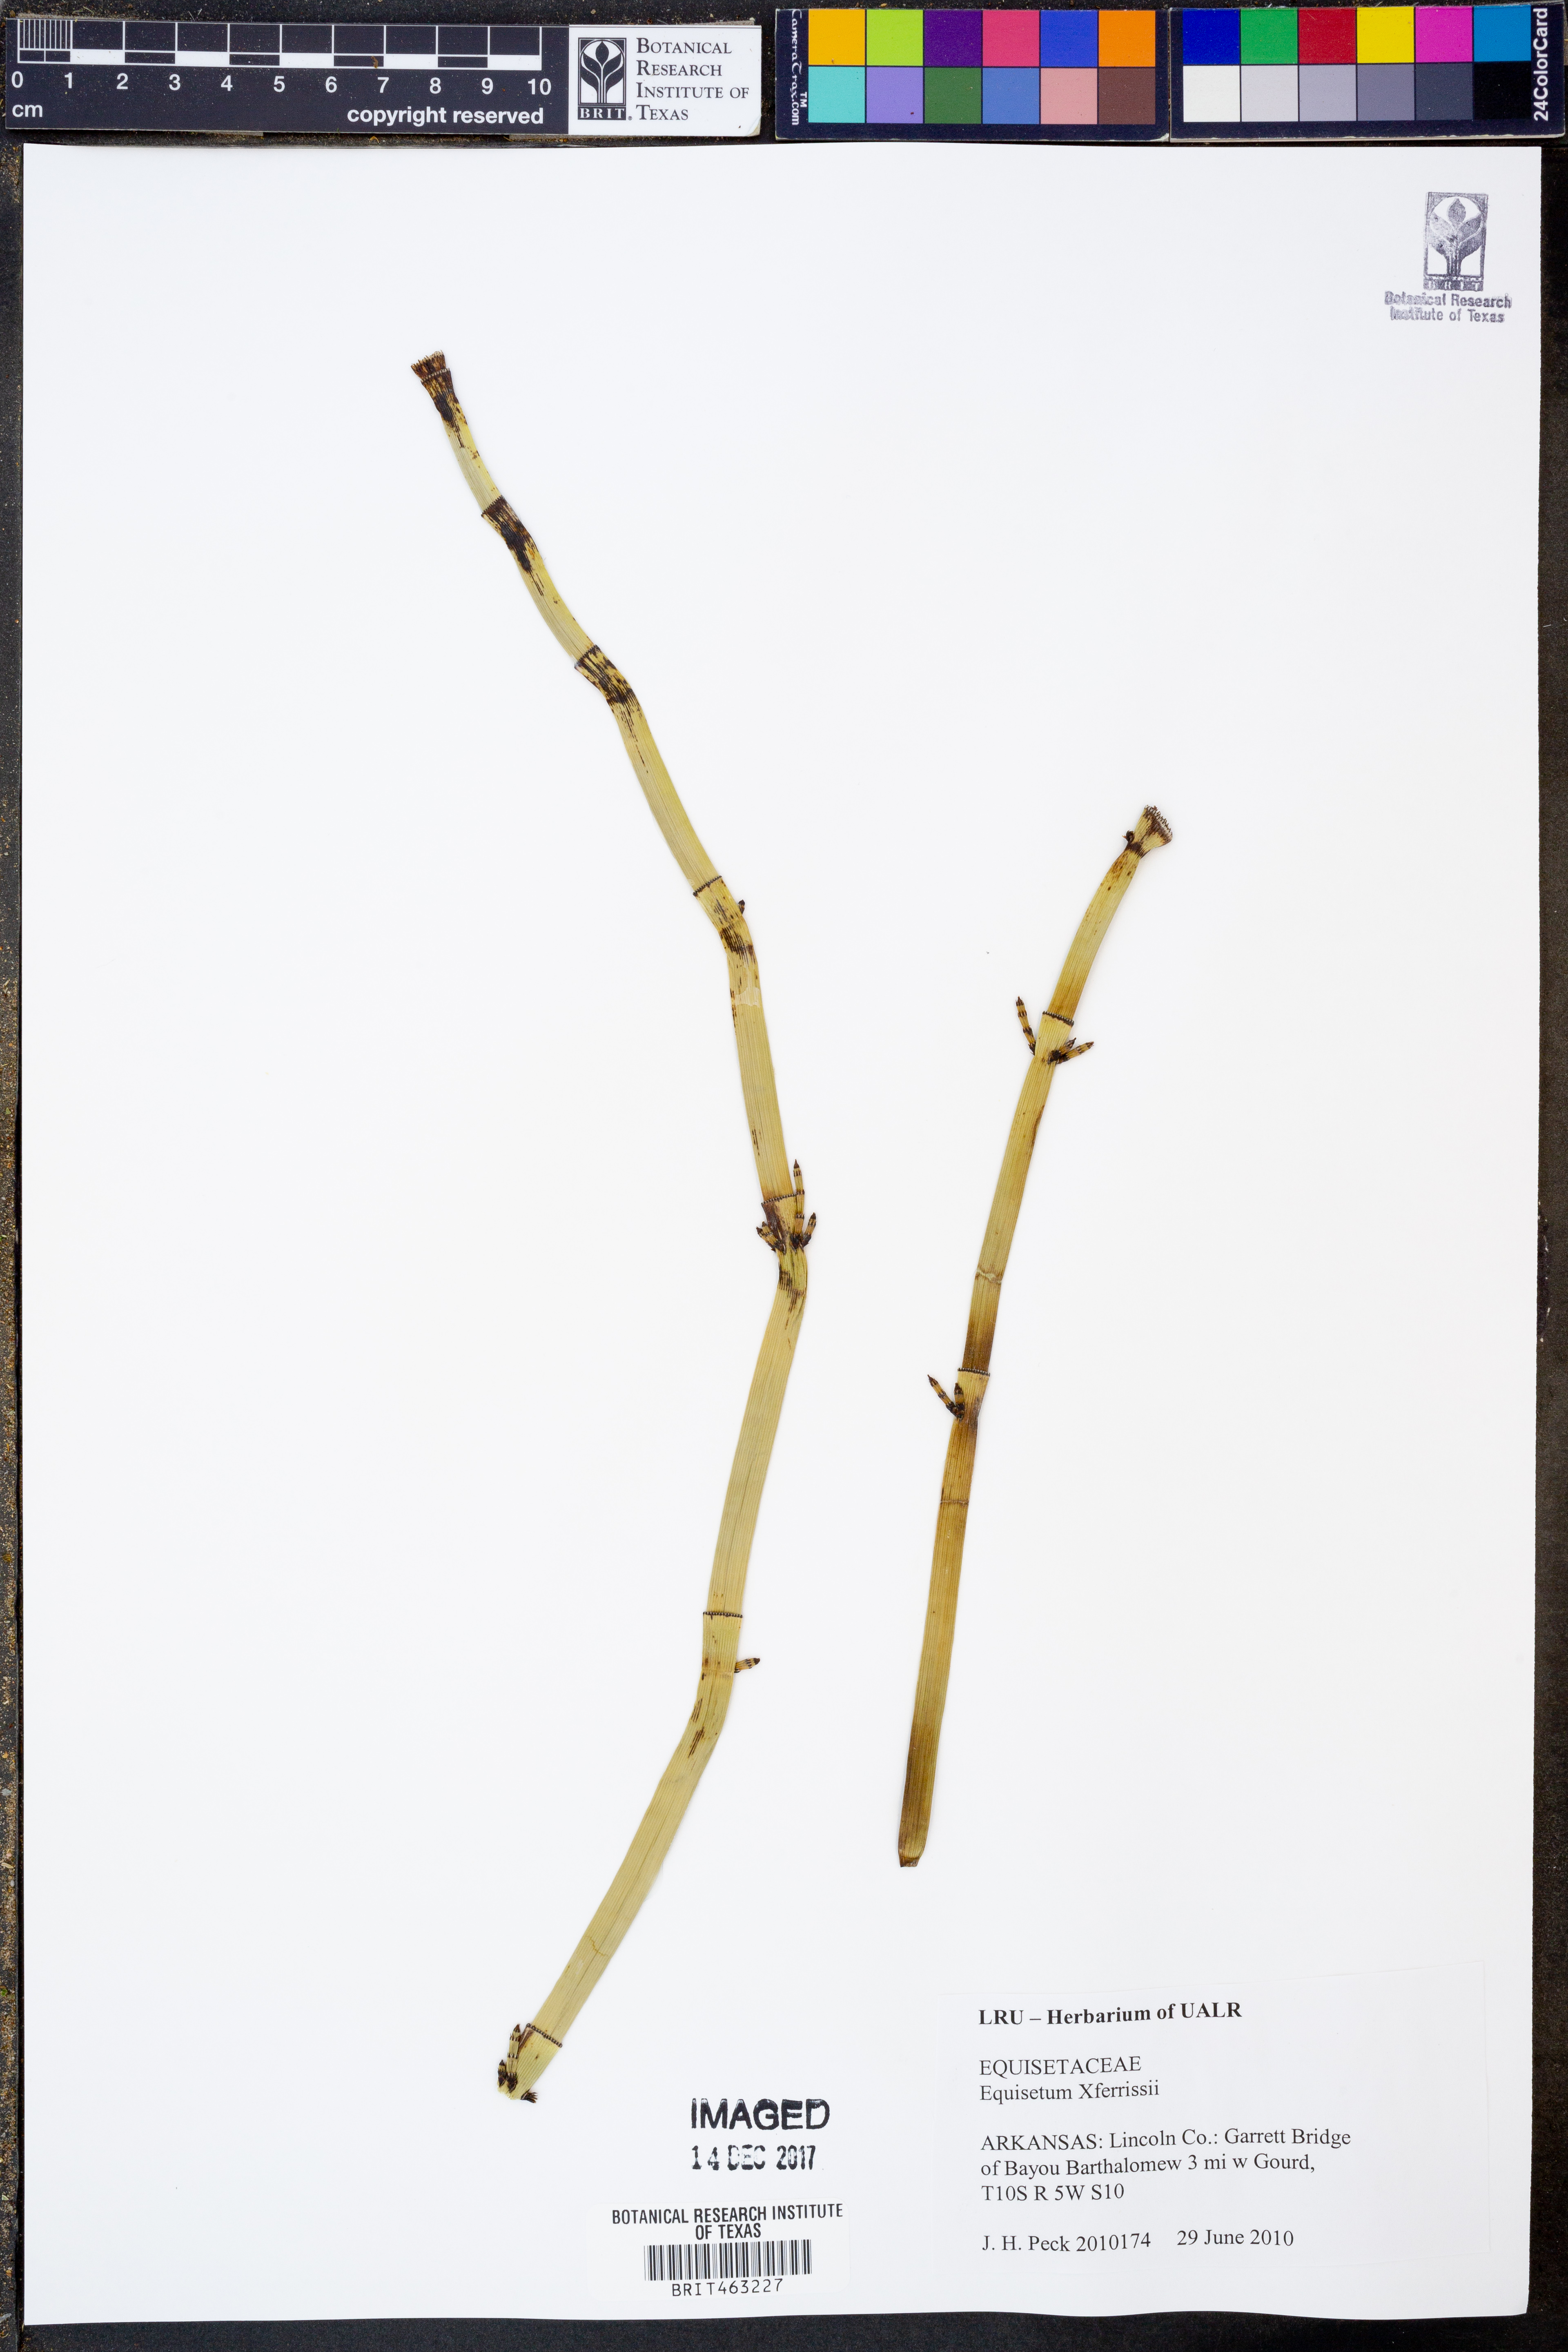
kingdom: Plantae
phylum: Tracheophyta
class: Polypodiopsida
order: Equisetales
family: Equisetaceae
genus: Equisetum
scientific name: Equisetum ferrissii
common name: Ferriss' horsetail
